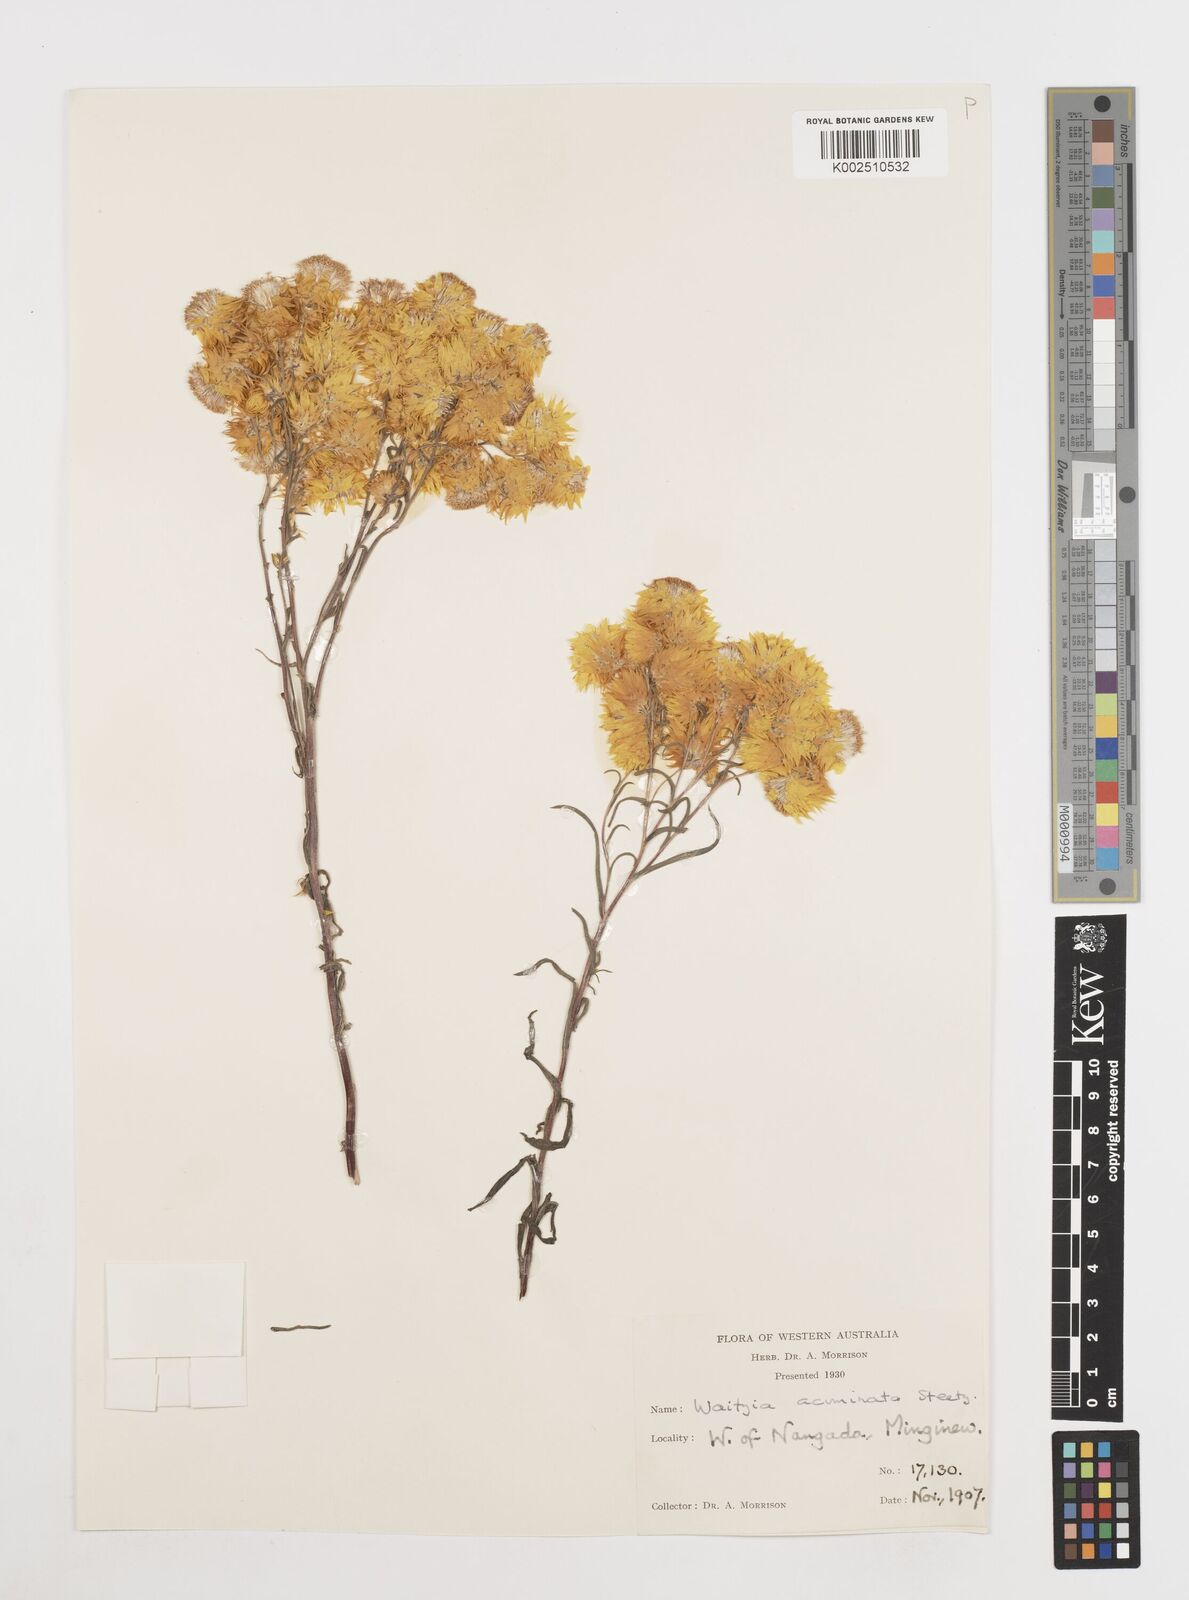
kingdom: Plantae
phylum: Tracheophyta
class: Magnoliopsida
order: Asterales
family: Asteraceae
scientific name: Asteraceae
